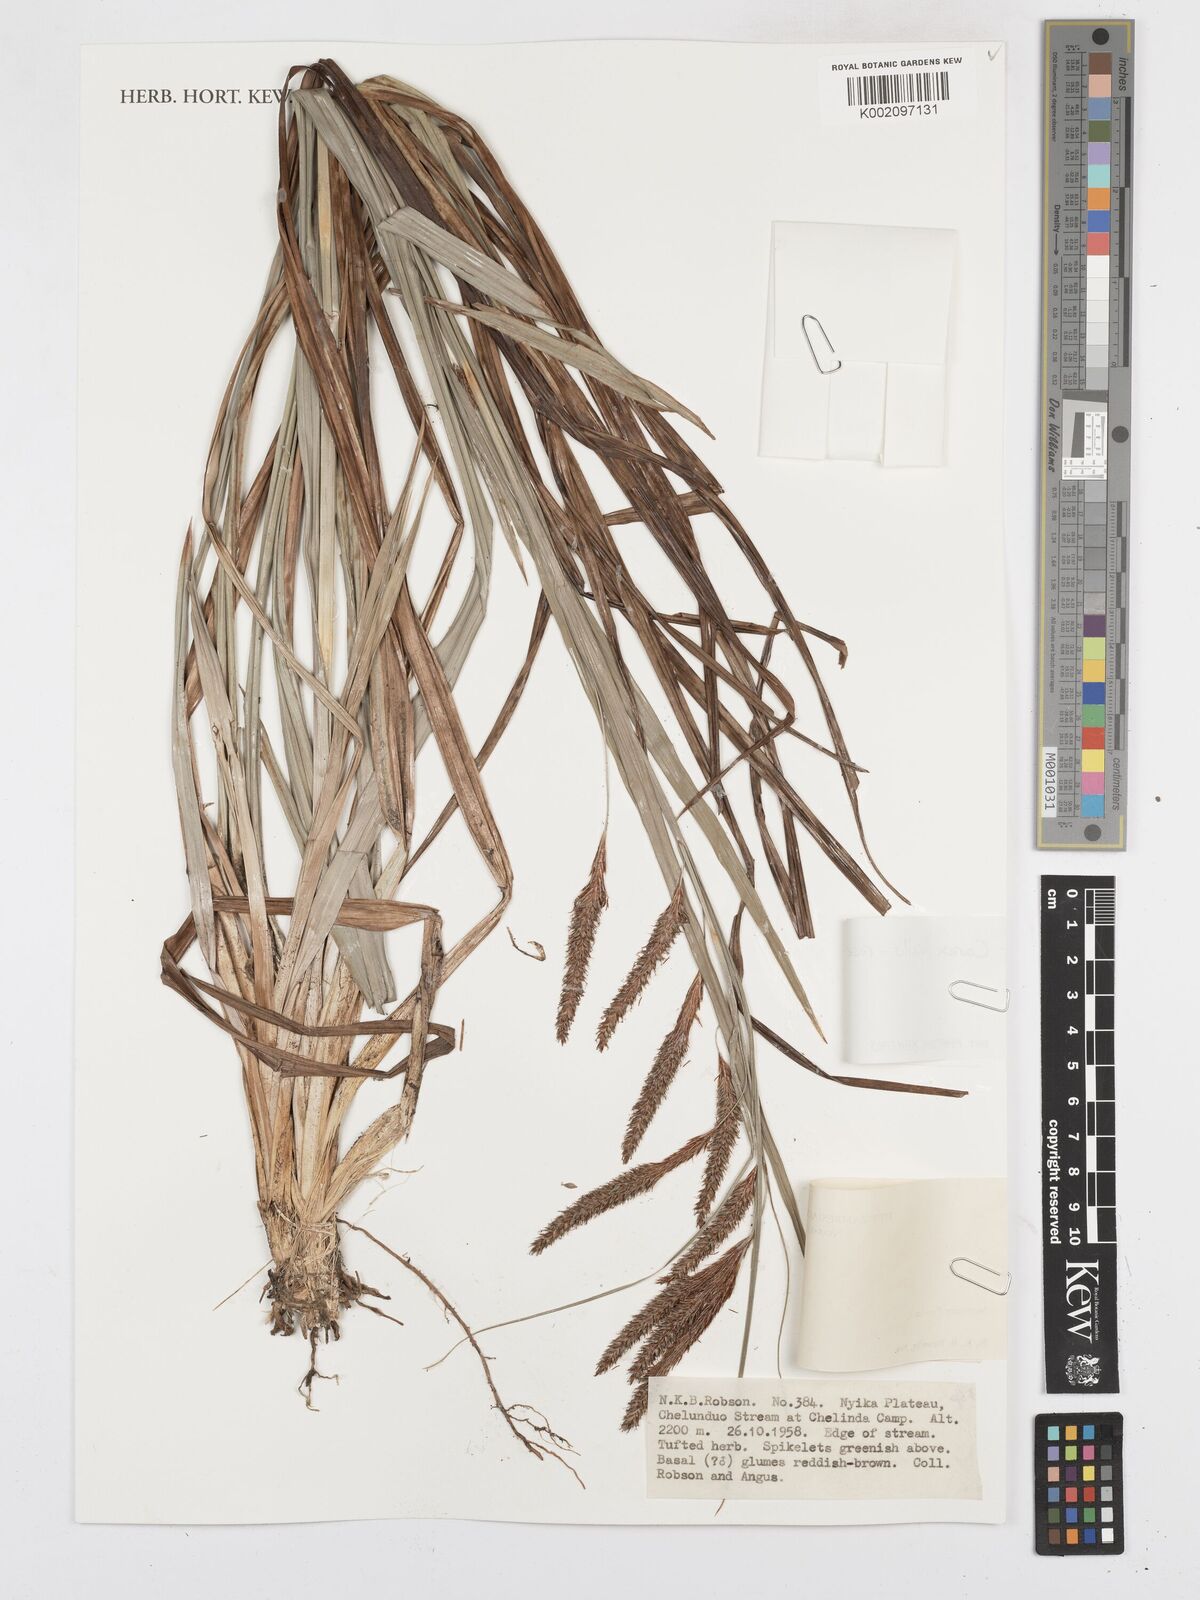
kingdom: Plantae
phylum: Tracheophyta
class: Liliopsida
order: Poales
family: Cyperaceae
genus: Carex
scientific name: Carex vallis-rosetto
